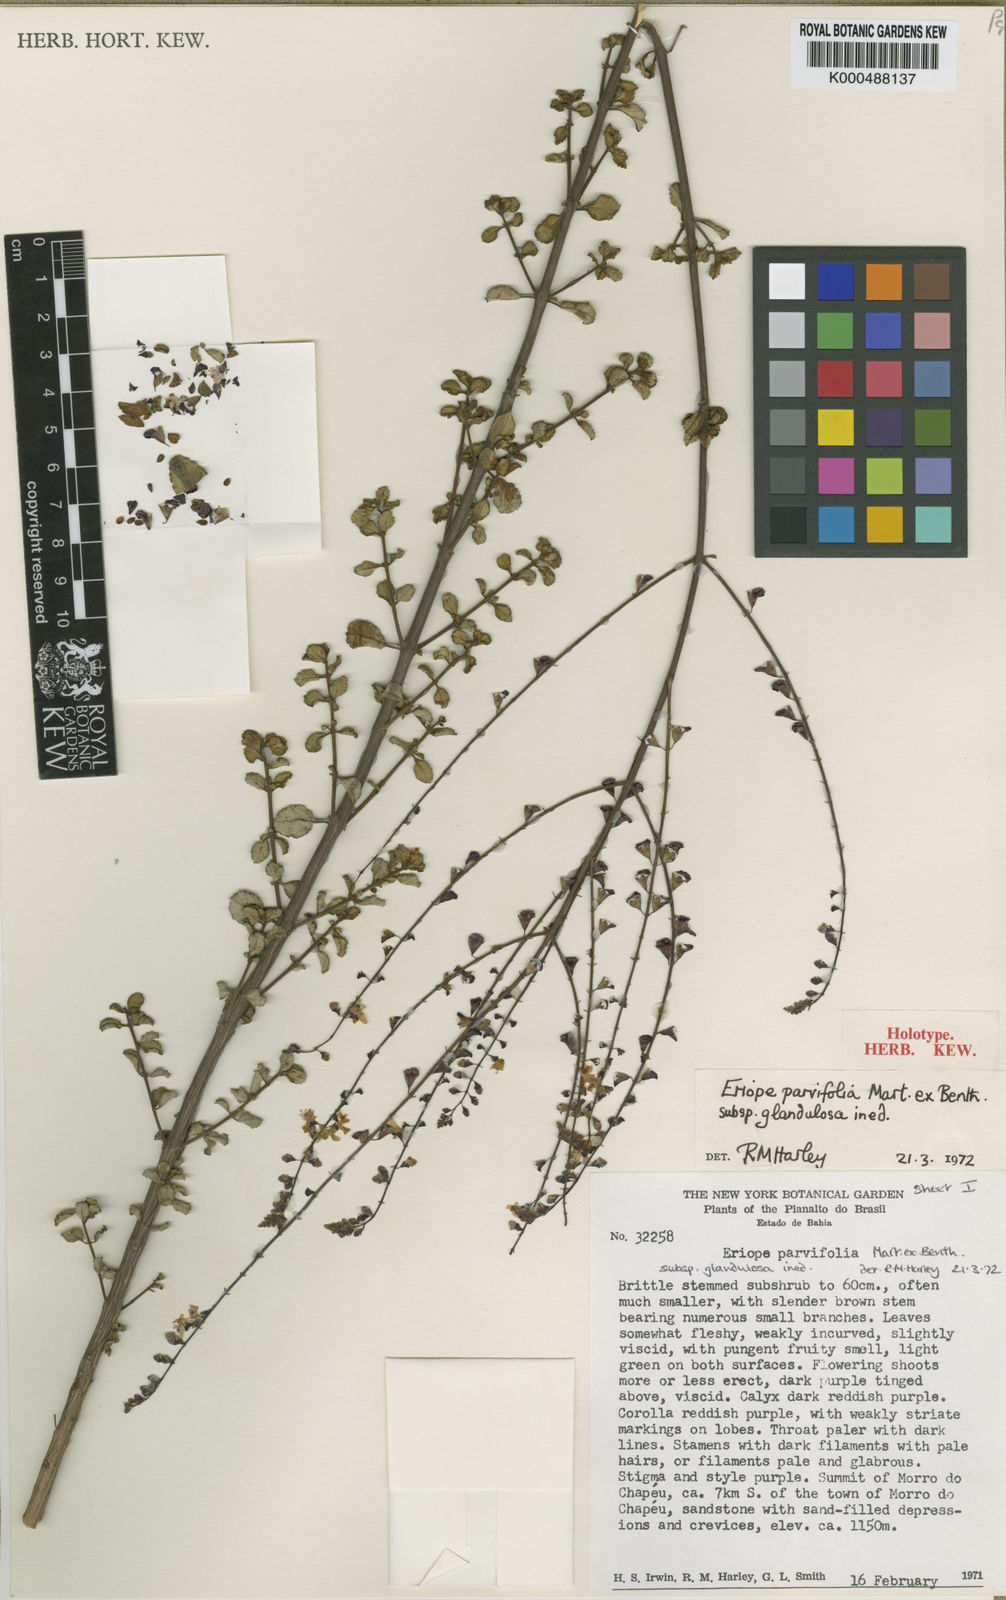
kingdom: Plantae
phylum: Tracheophyta
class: Magnoliopsida
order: Lamiales
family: Lamiaceae
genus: Eriope
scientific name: Eriope parvifolia
